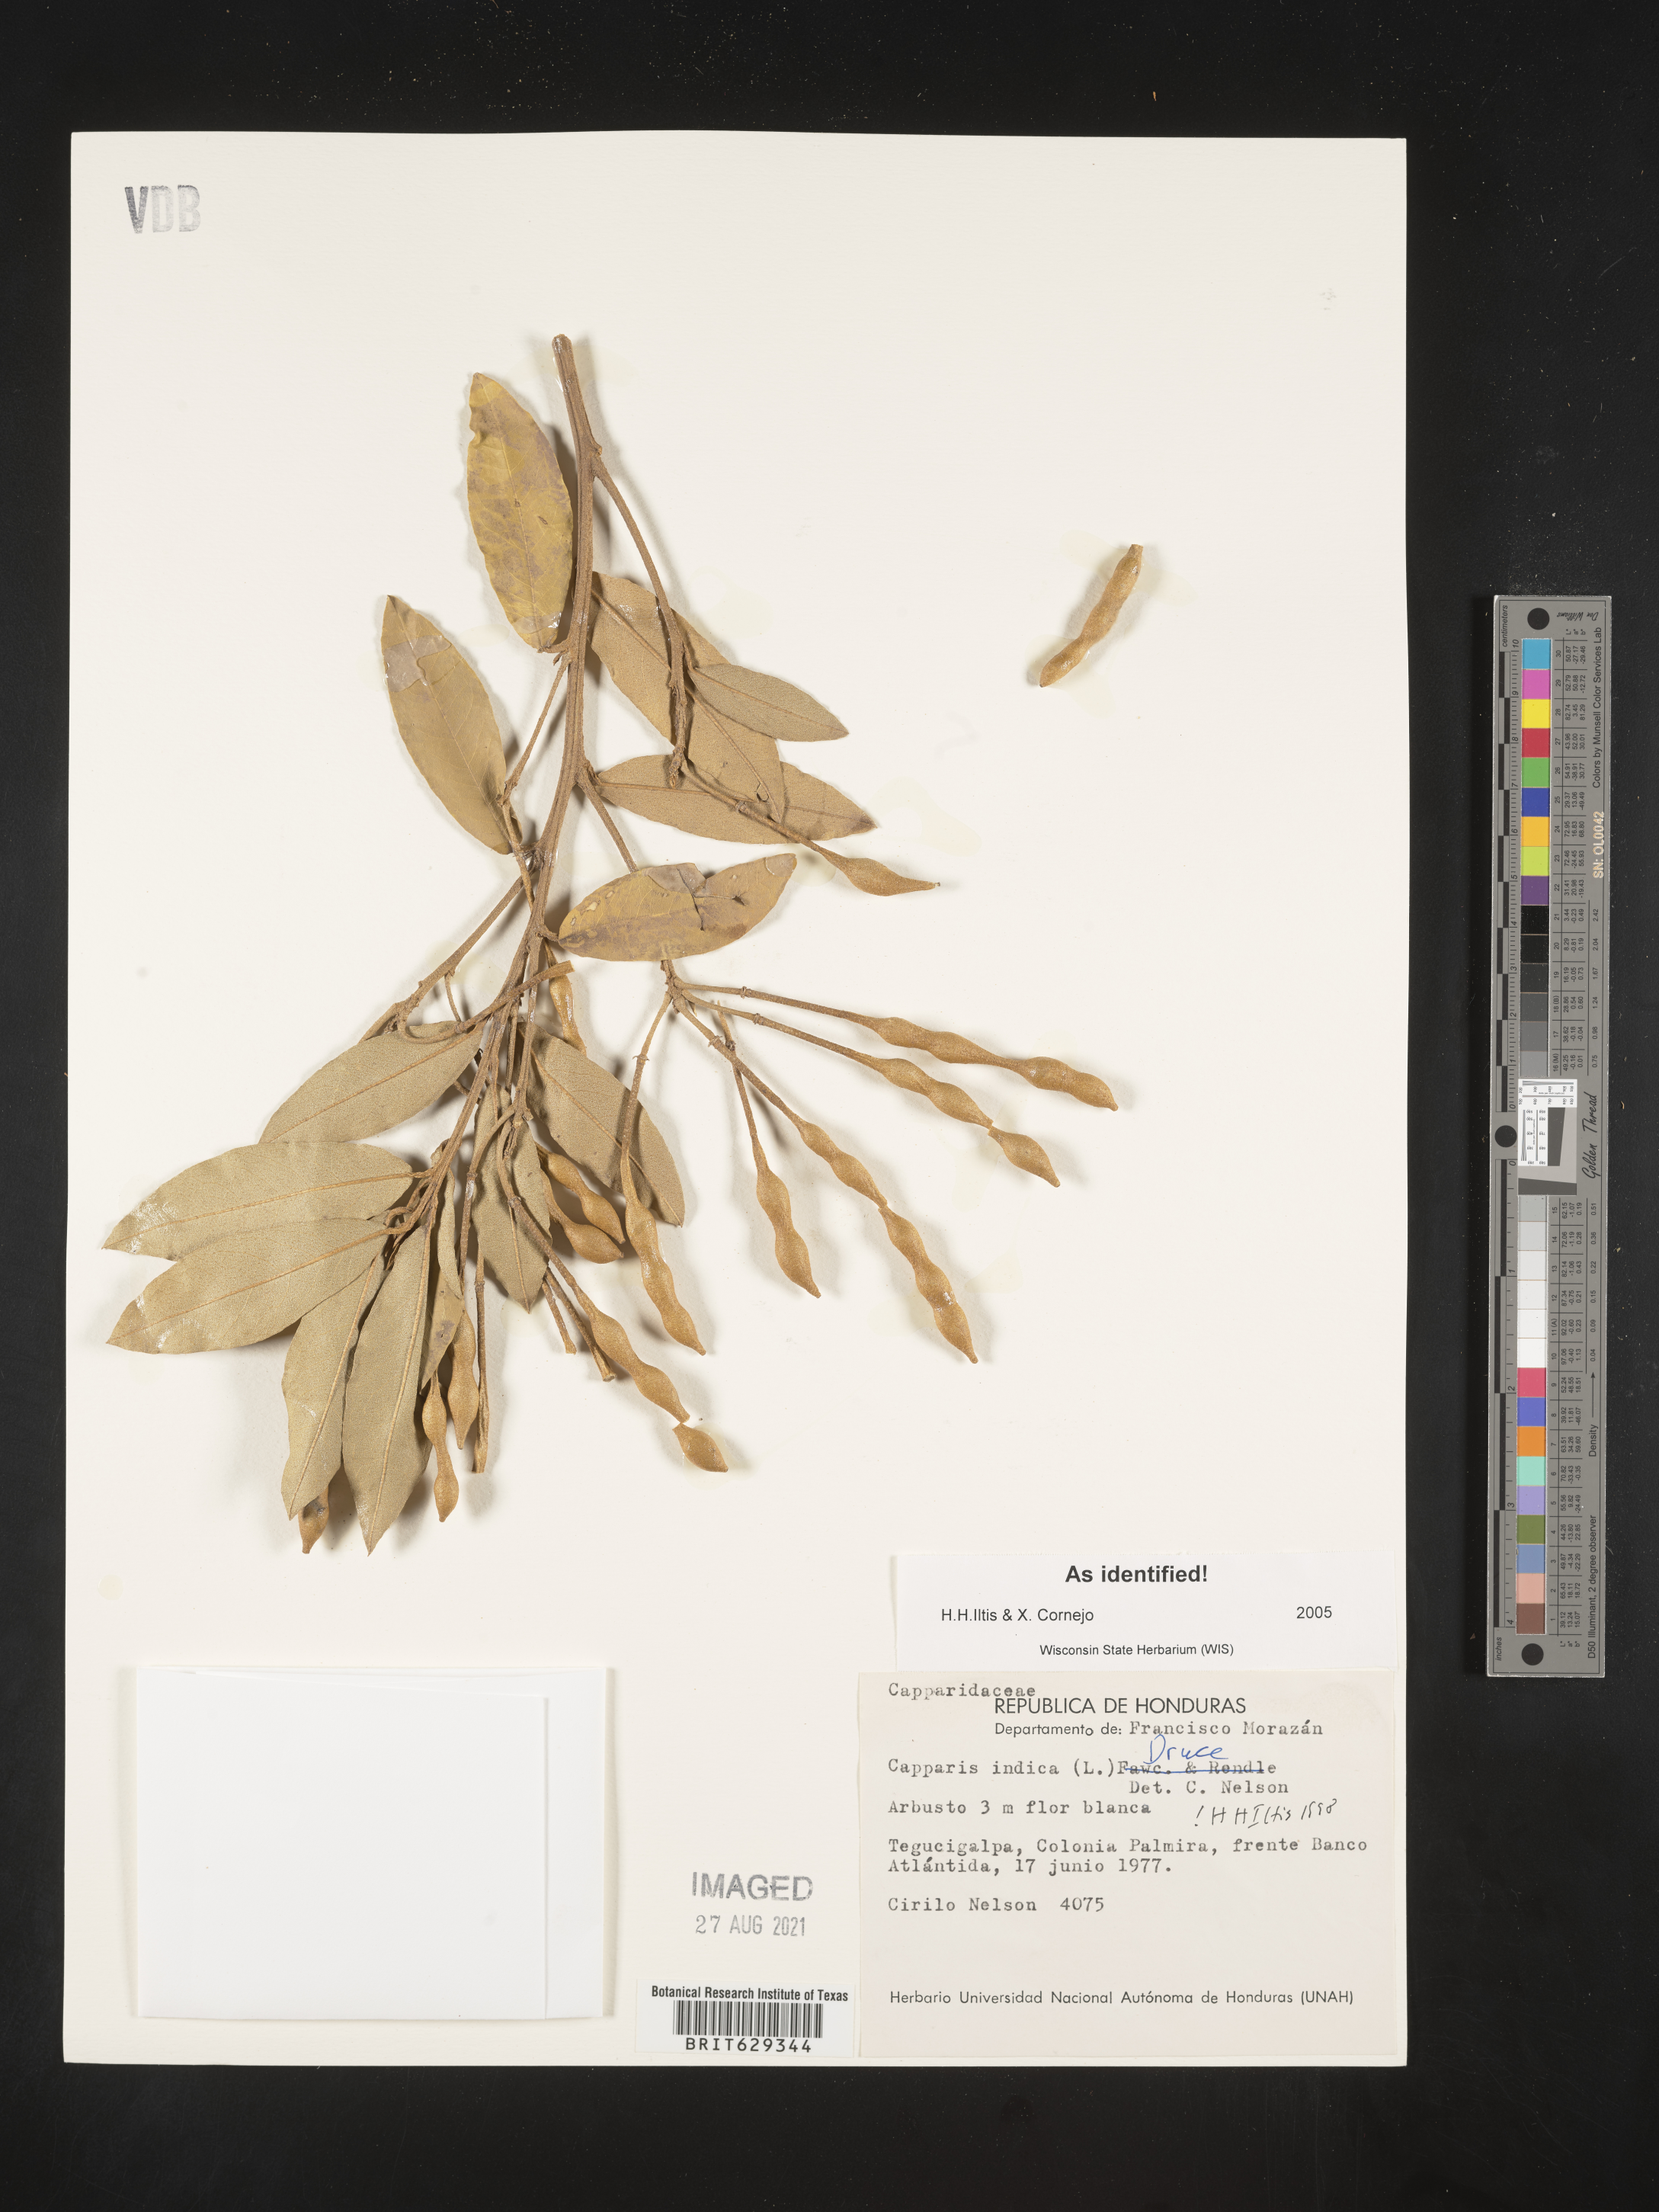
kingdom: Plantae
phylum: Tracheophyta
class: Magnoliopsida
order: Brassicales
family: Capparaceae
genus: Quadrella
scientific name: Quadrella indica
